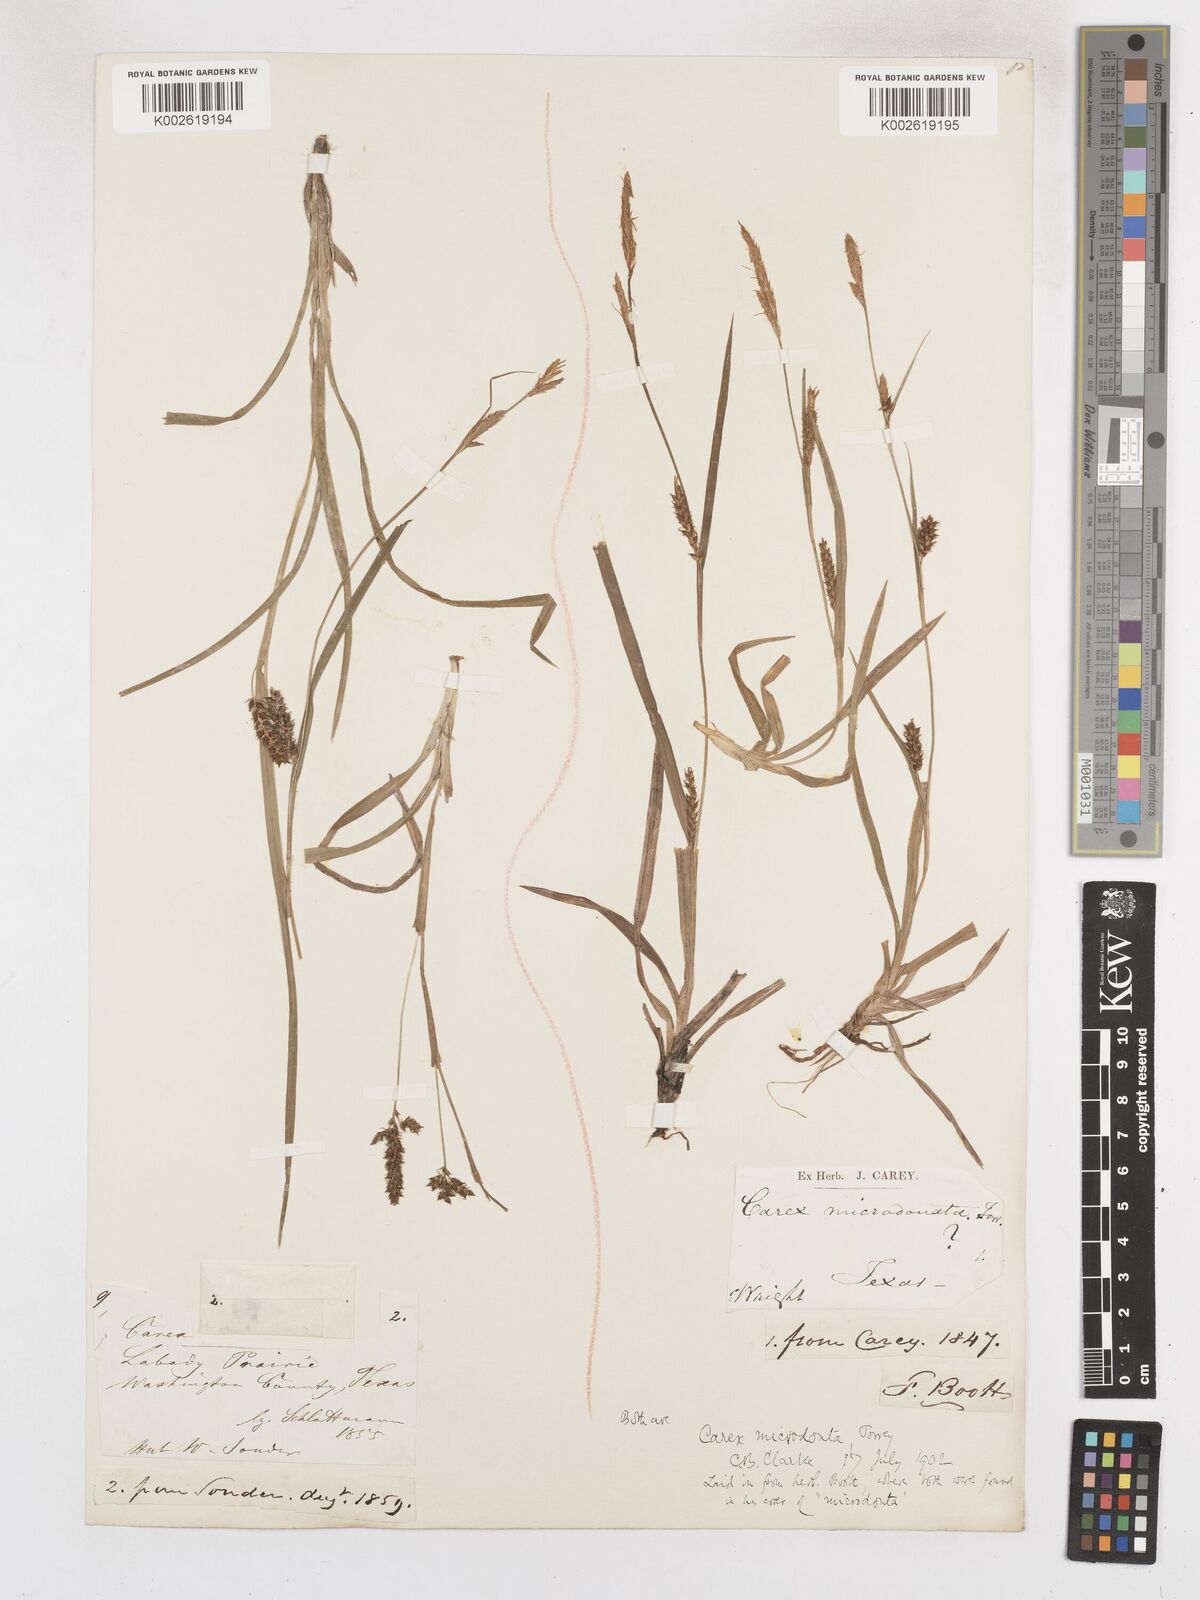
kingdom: Plantae
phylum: Tracheophyta
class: Liliopsida
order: Poales
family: Cyperaceae
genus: Carex
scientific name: Carex microdonta
